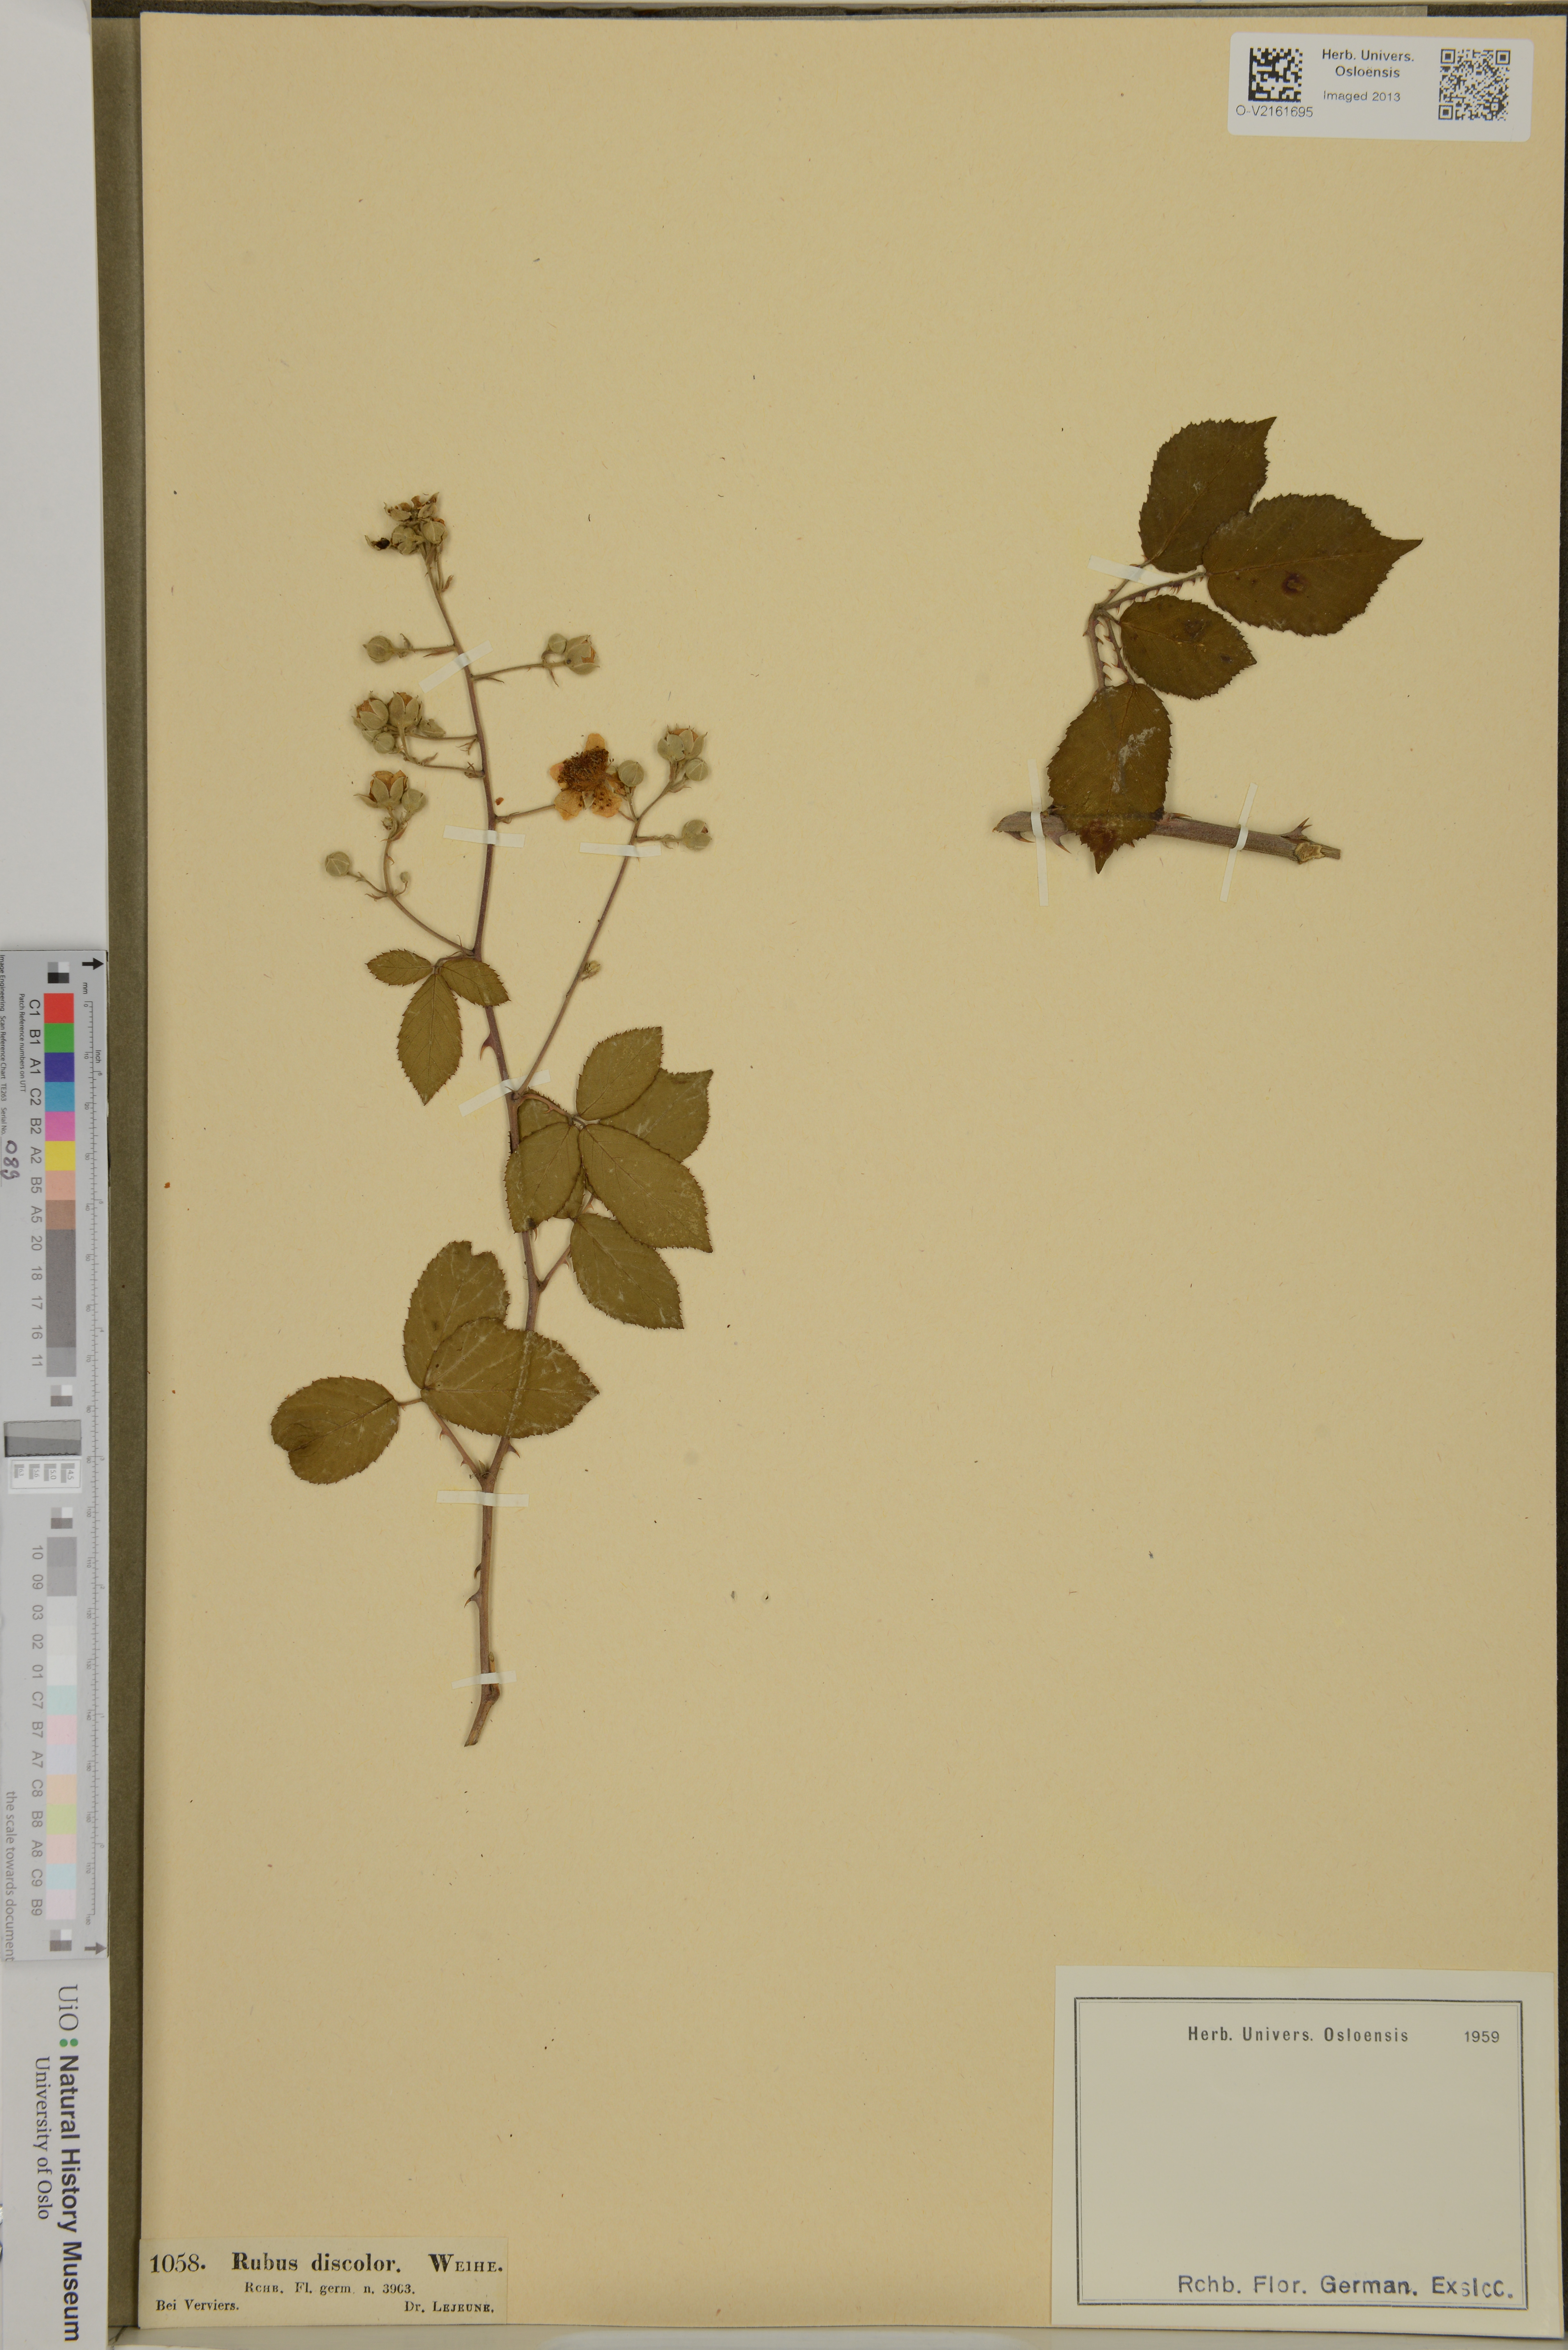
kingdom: Plantae
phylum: Tracheophyta
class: Magnoliopsida
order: Rosales
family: Rosaceae
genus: Rubus
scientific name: Rubus ulmifolius
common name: Elmleaf blackberry
